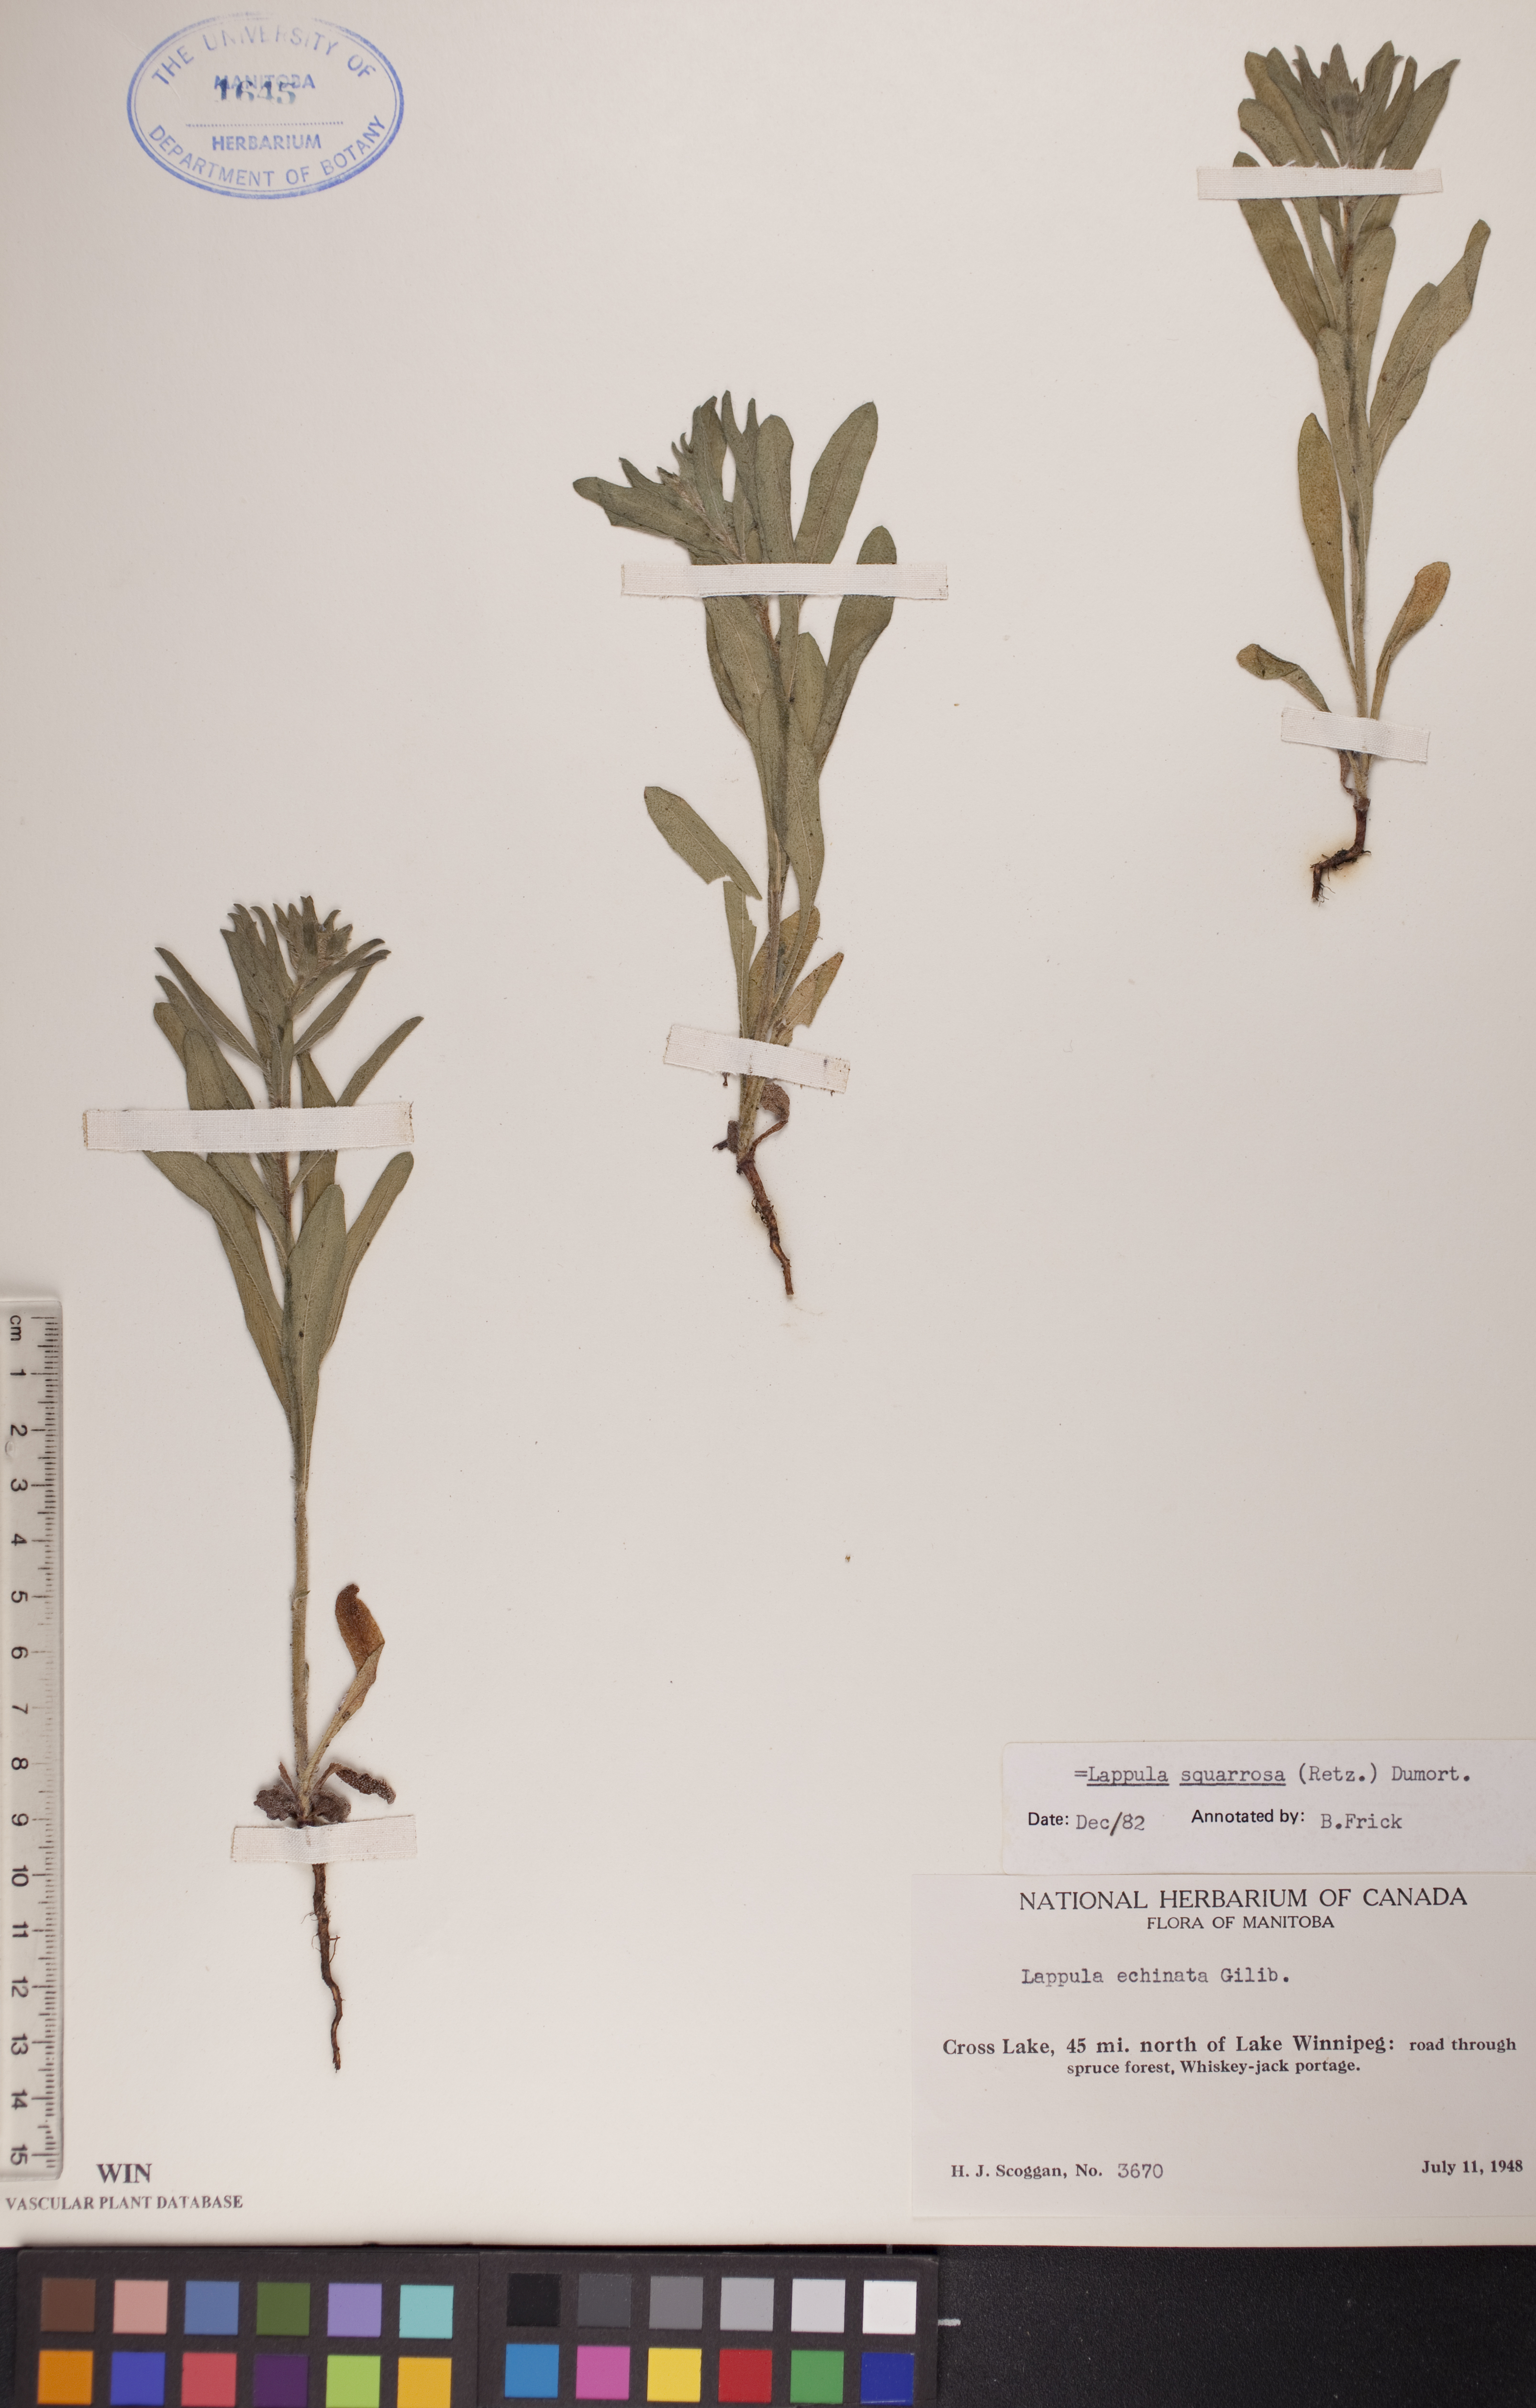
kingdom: Plantae
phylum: Tracheophyta
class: Magnoliopsida
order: Boraginales
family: Boraginaceae
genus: Lappula
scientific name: Lappula squarrosa
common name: European stickseed
